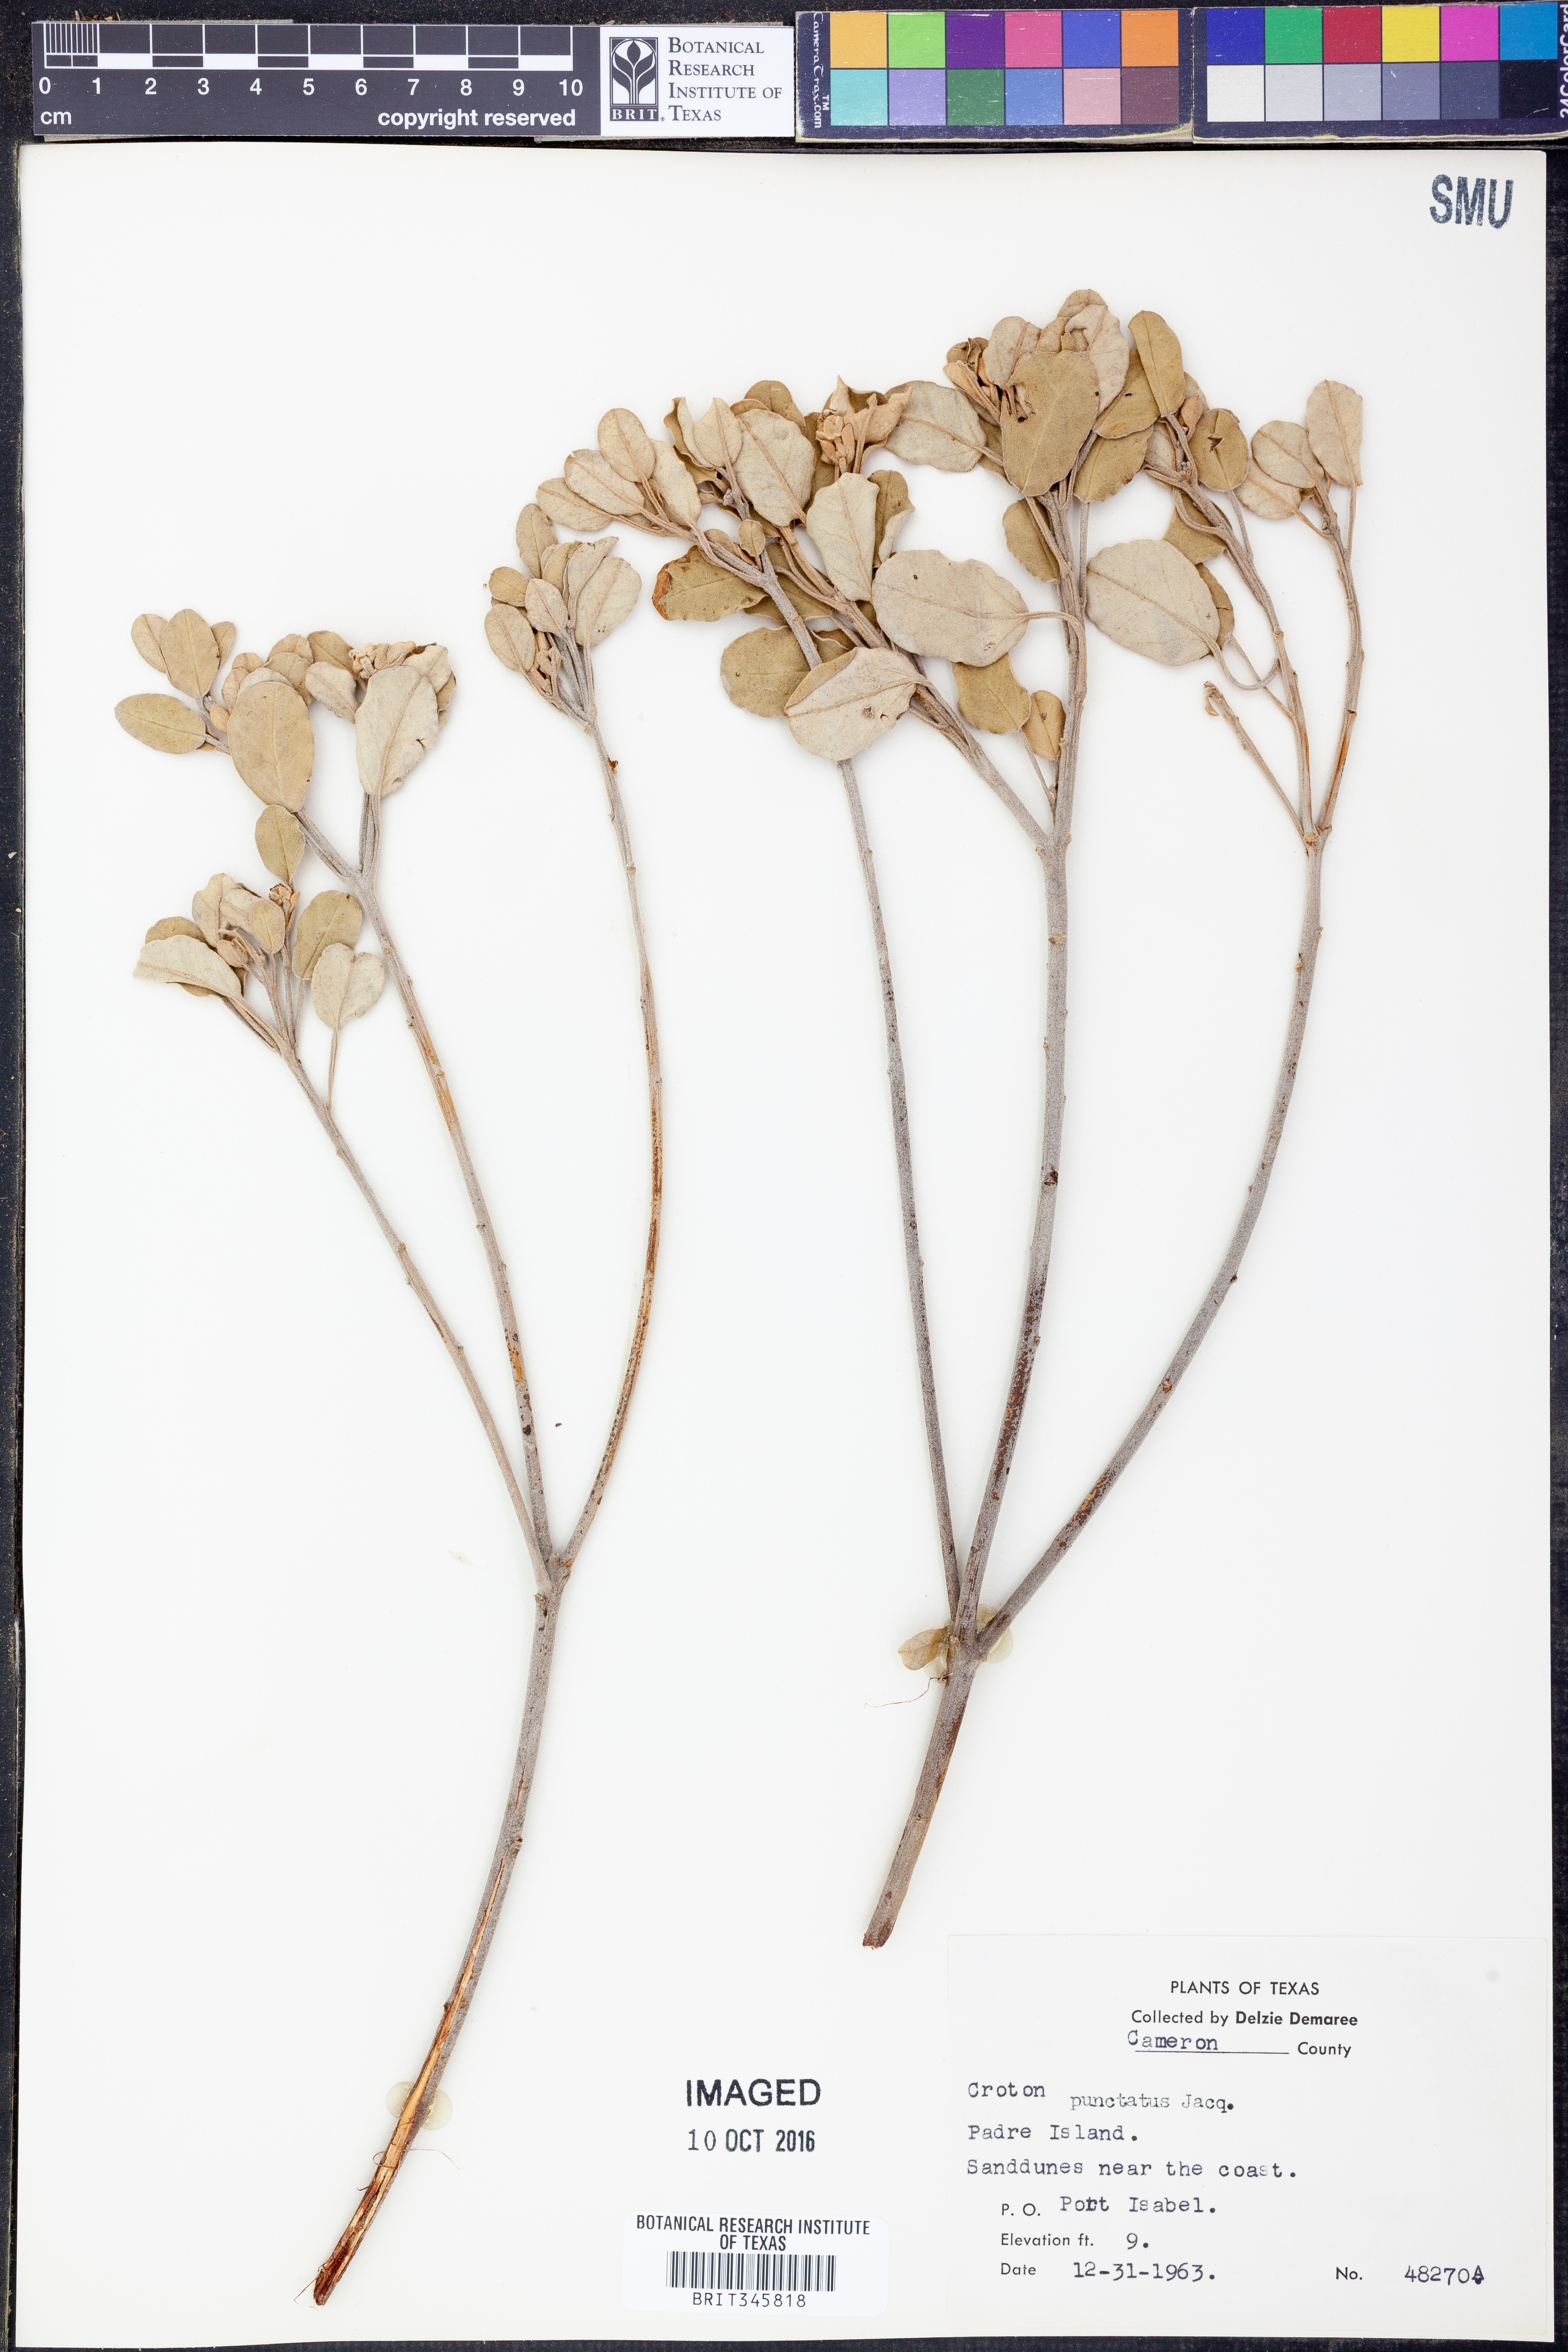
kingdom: Plantae
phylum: Tracheophyta
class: Magnoliopsida
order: Malpighiales
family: Euphorbiaceae
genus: Croton
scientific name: Croton punctatus
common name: Beach-tea
